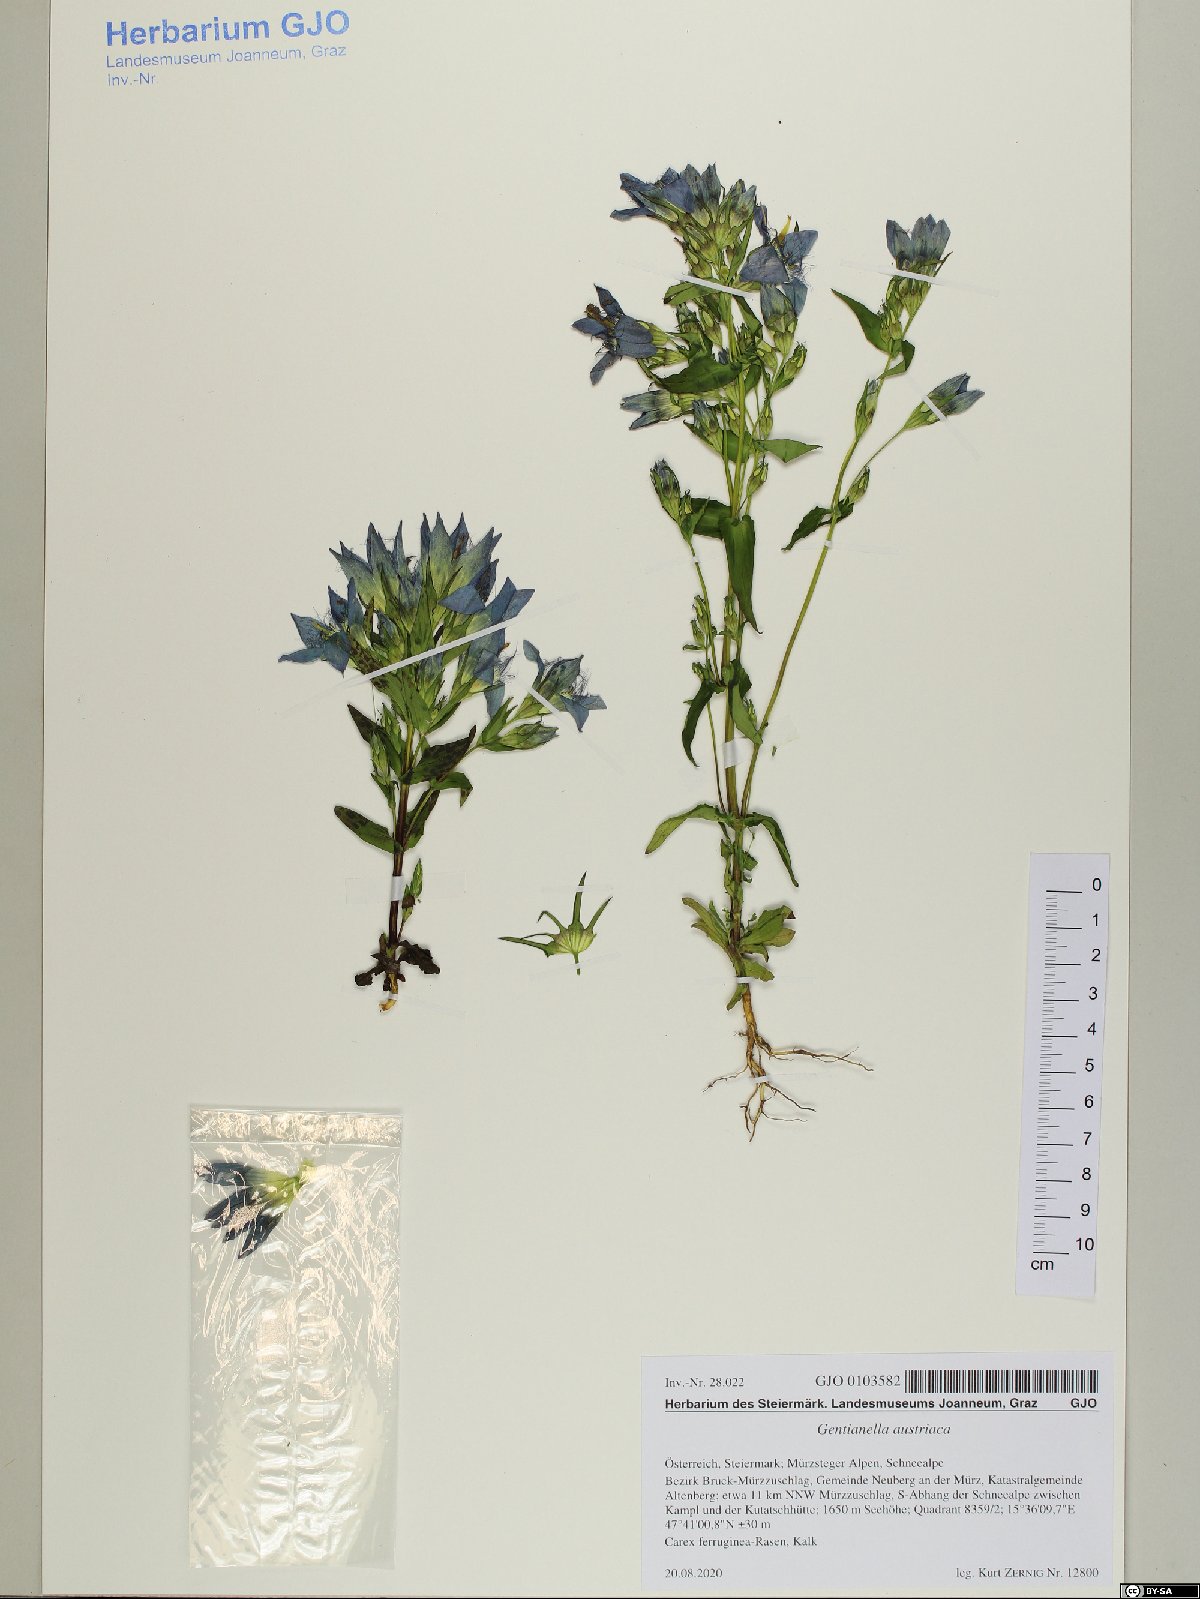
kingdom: Plantae
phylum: Tracheophyta
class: Magnoliopsida
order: Gentianales
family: Gentianaceae
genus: Gentianella
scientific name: Gentianella austriaca
